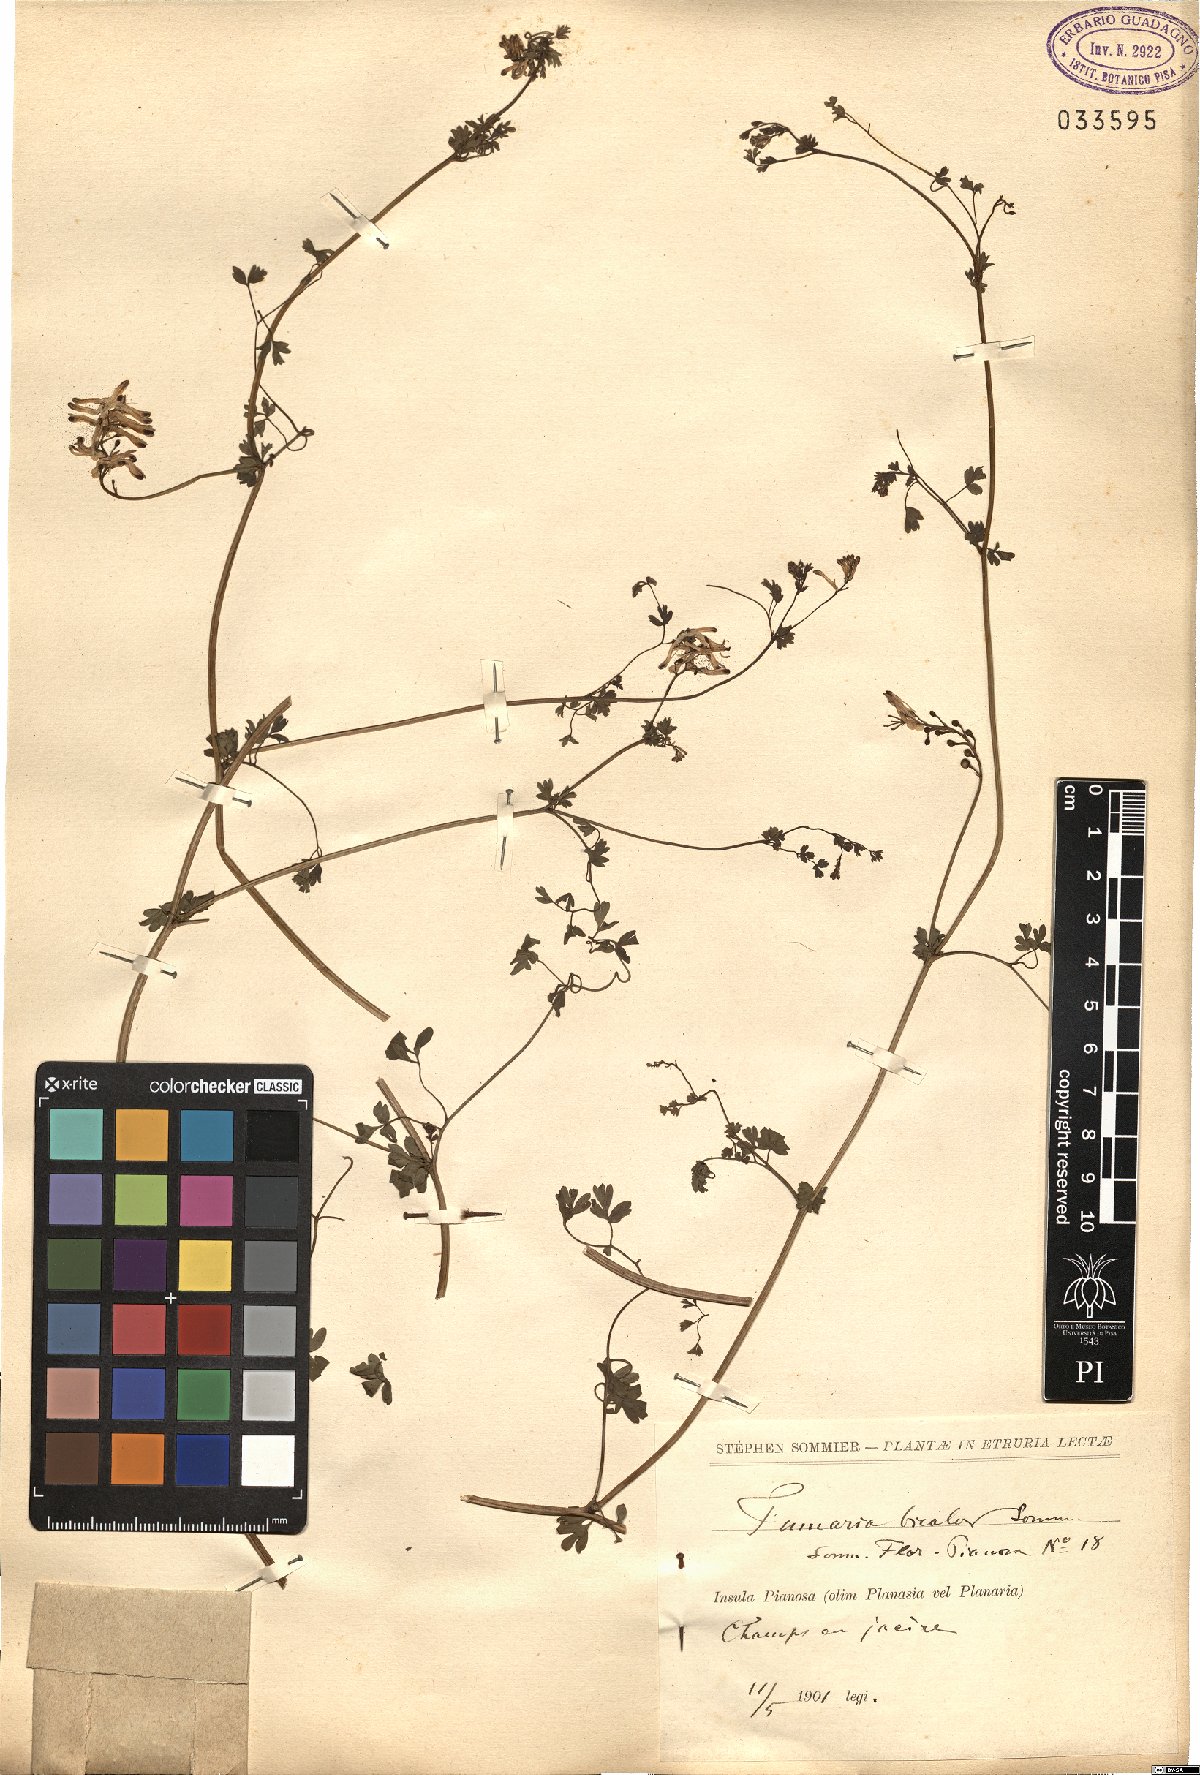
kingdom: Plantae
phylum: Tracheophyta
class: Magnoliopsida
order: Ranunculales
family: Papaveraceae
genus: Fumaria
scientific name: Fumaria bicolor
